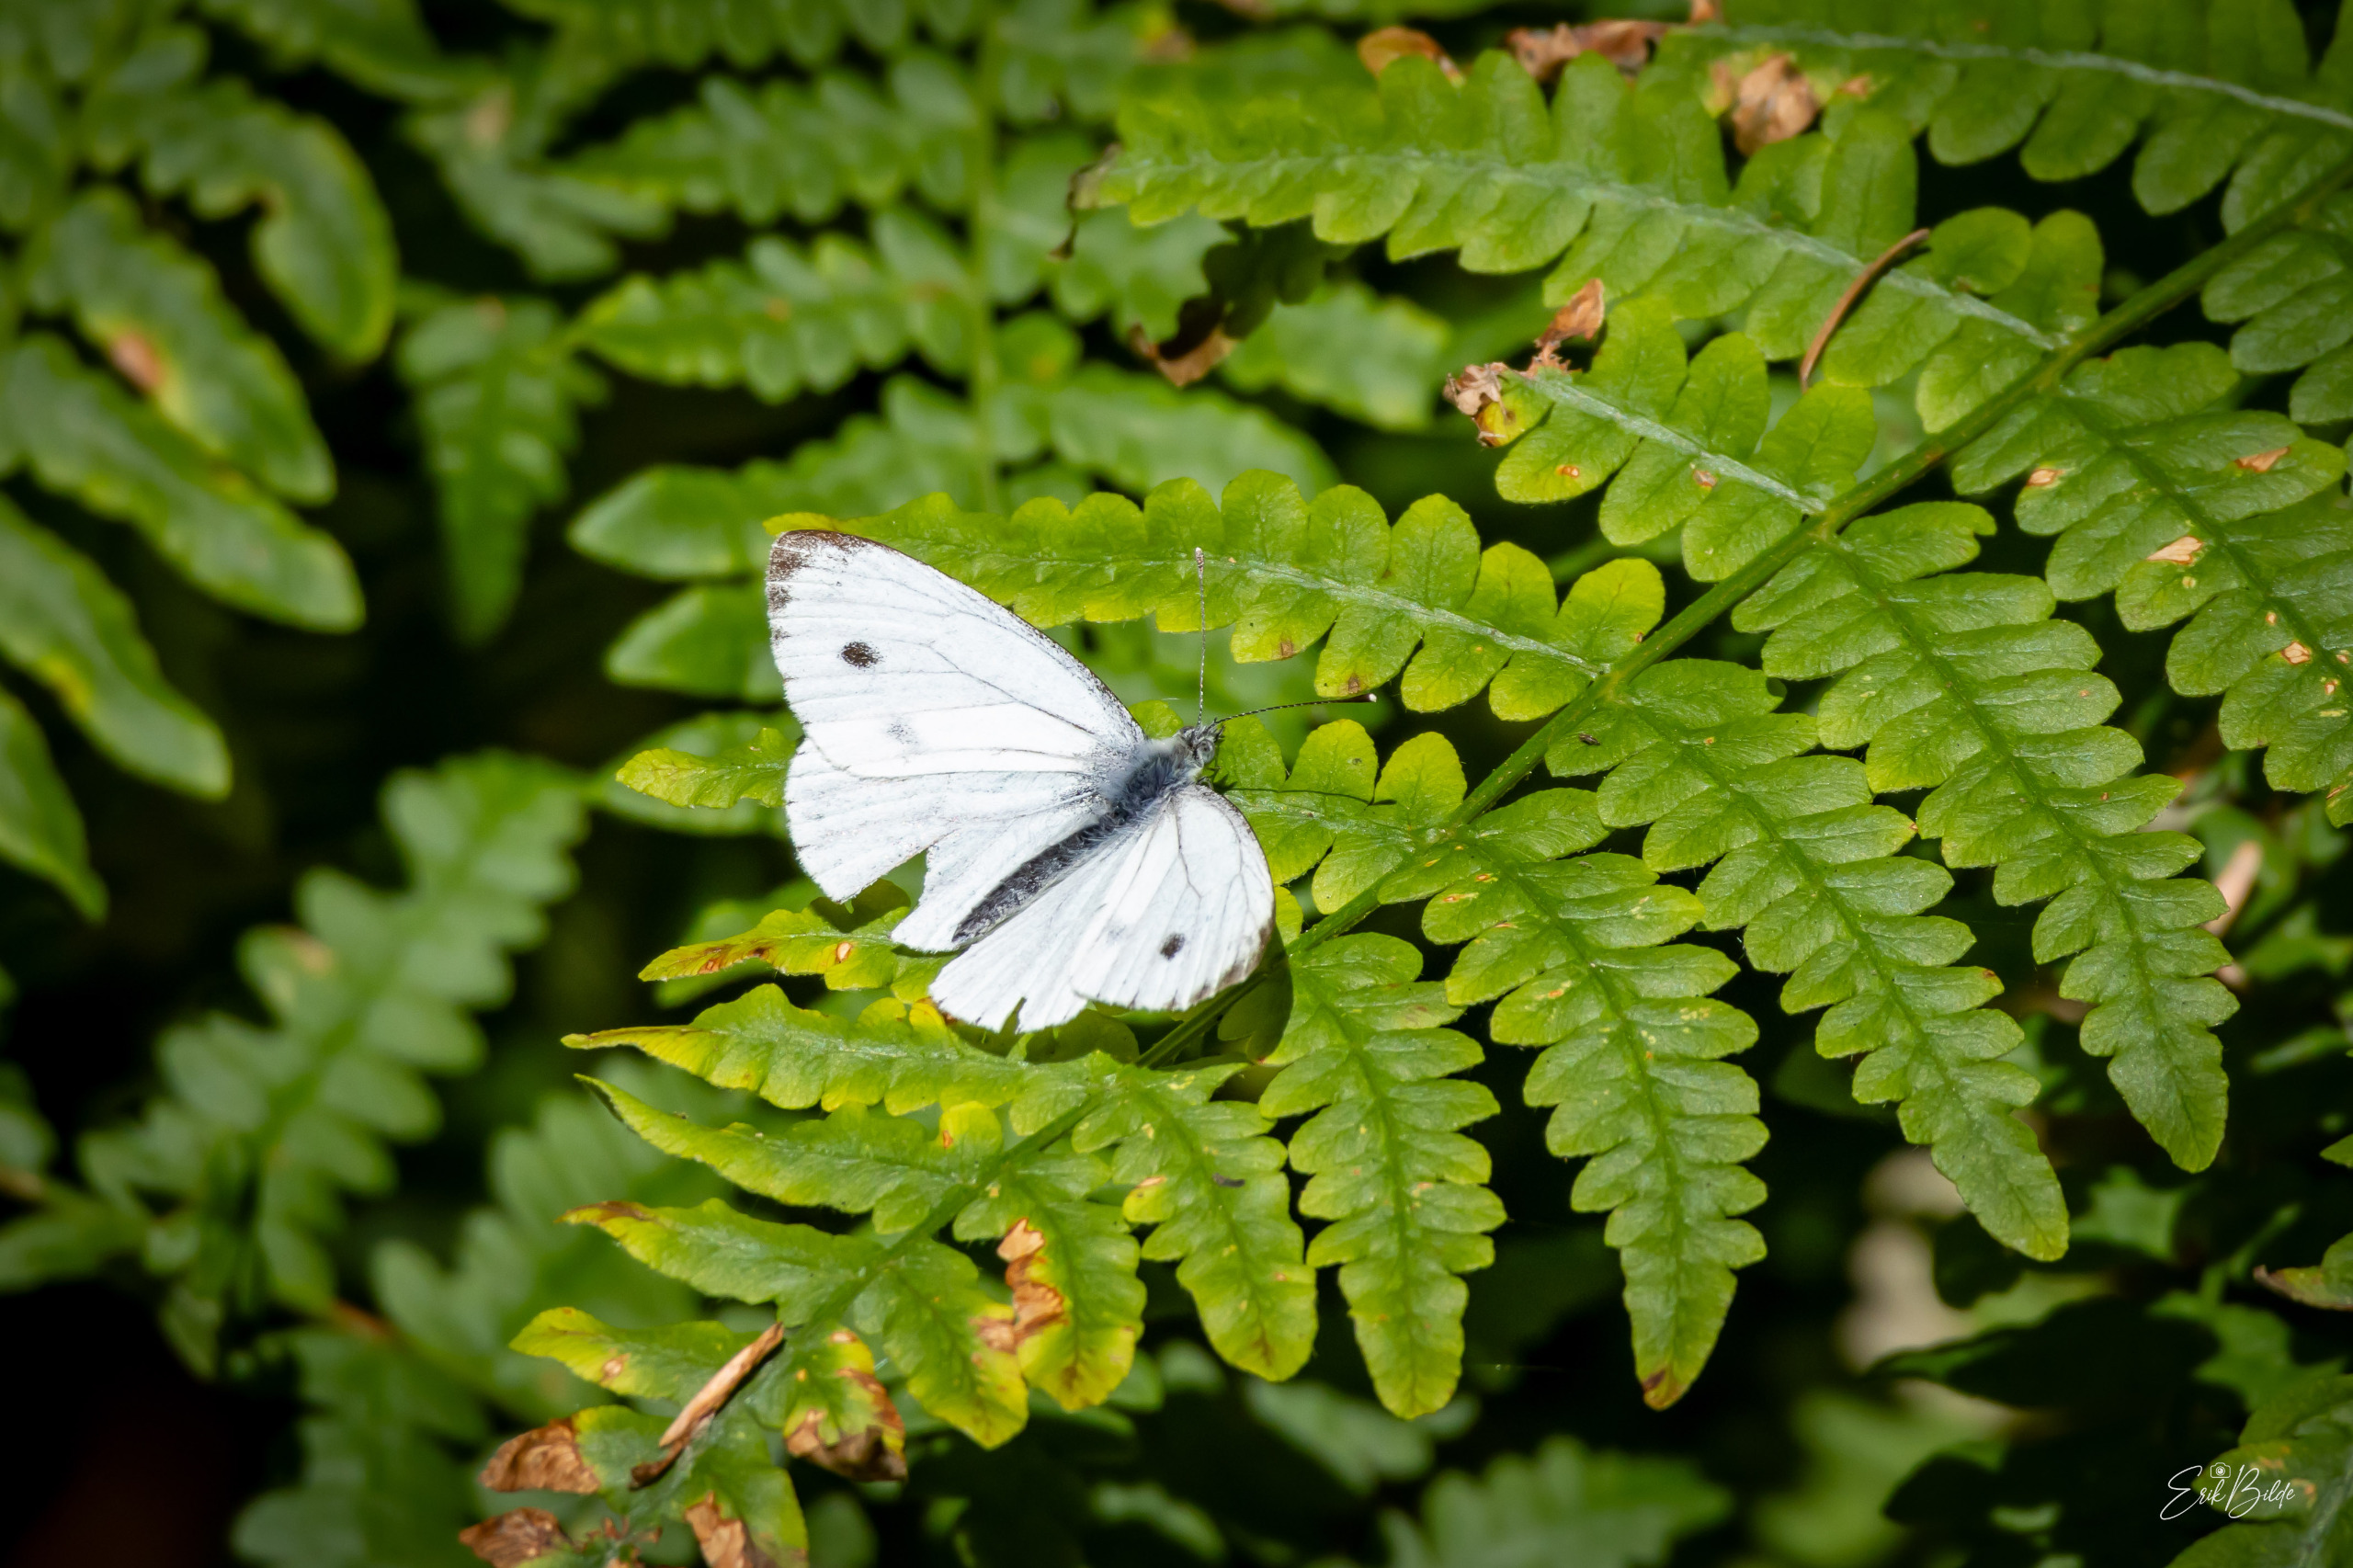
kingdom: Animalia
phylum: Arthropoda
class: Insecta
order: Lepidoptera
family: Pieridae
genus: Pieris
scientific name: Pieris napi
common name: Grønåret kålsommerfugl
